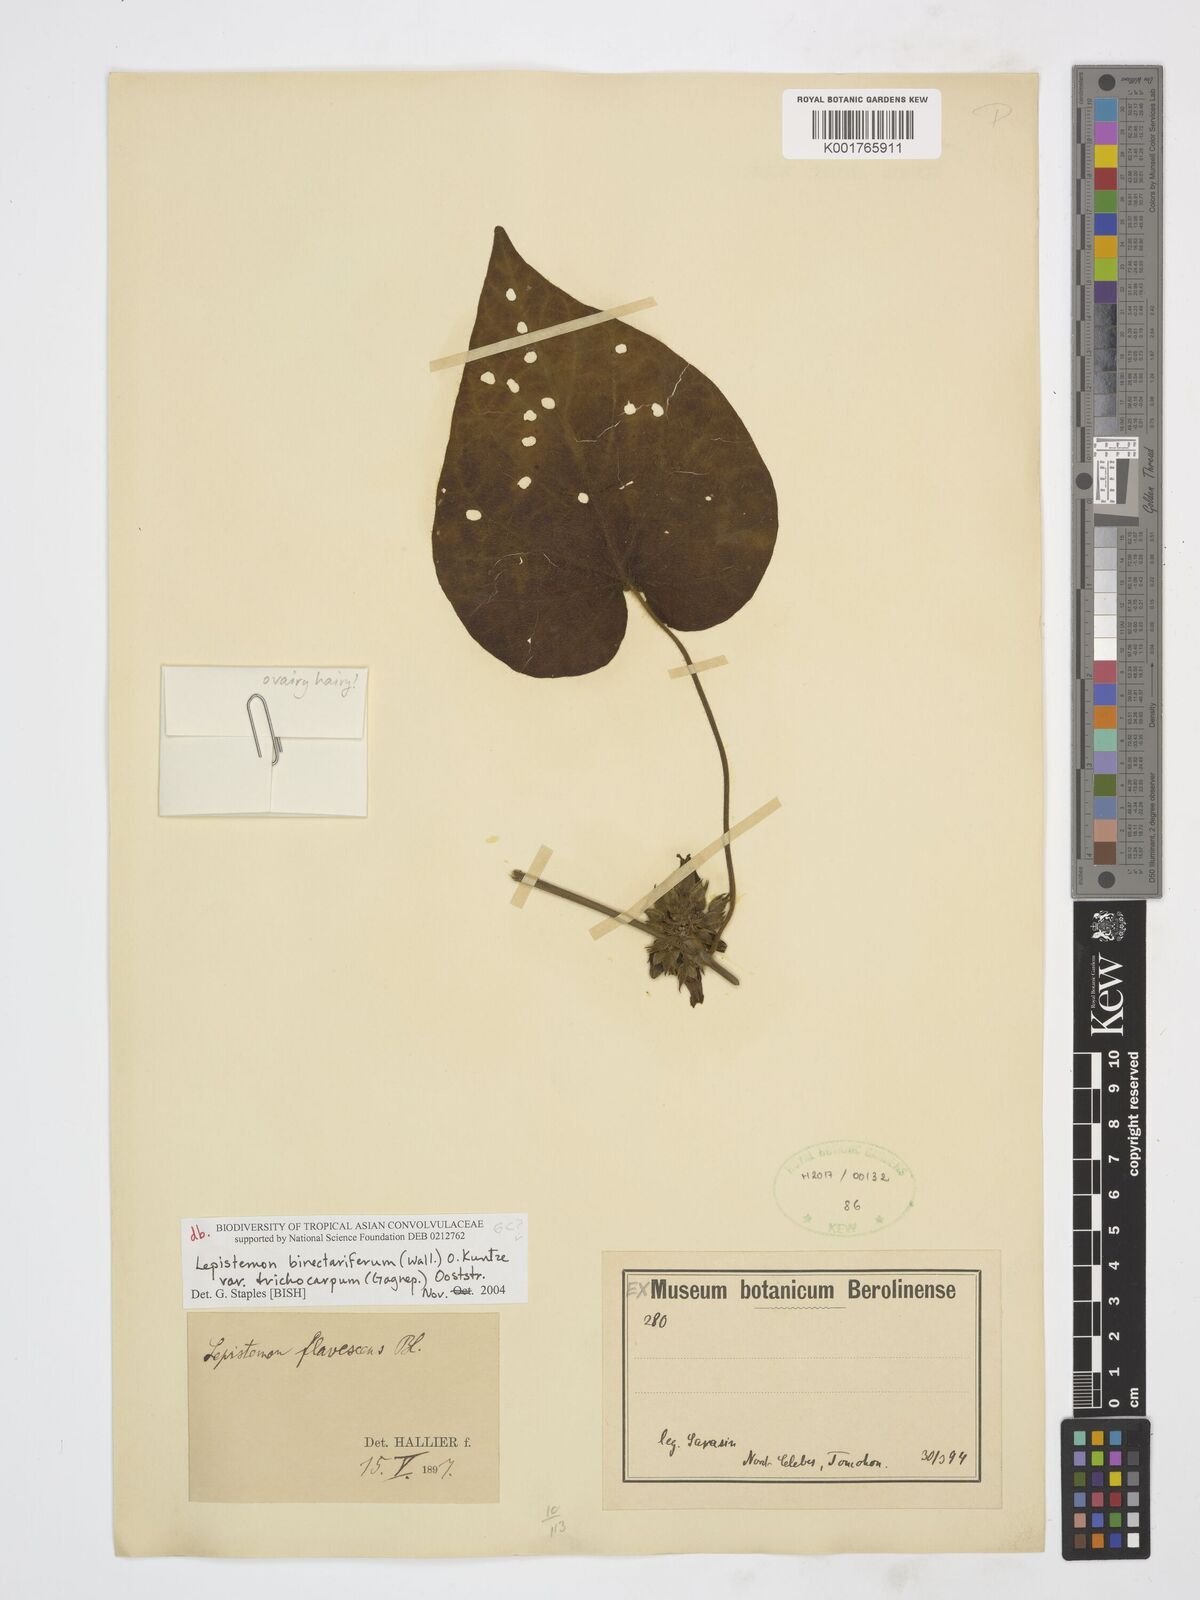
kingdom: Plantae
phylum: Tracheophyta
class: Magnoliopsida
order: Solanales
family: Convolvulaceae
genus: Lepistemon
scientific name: Lepistemon
